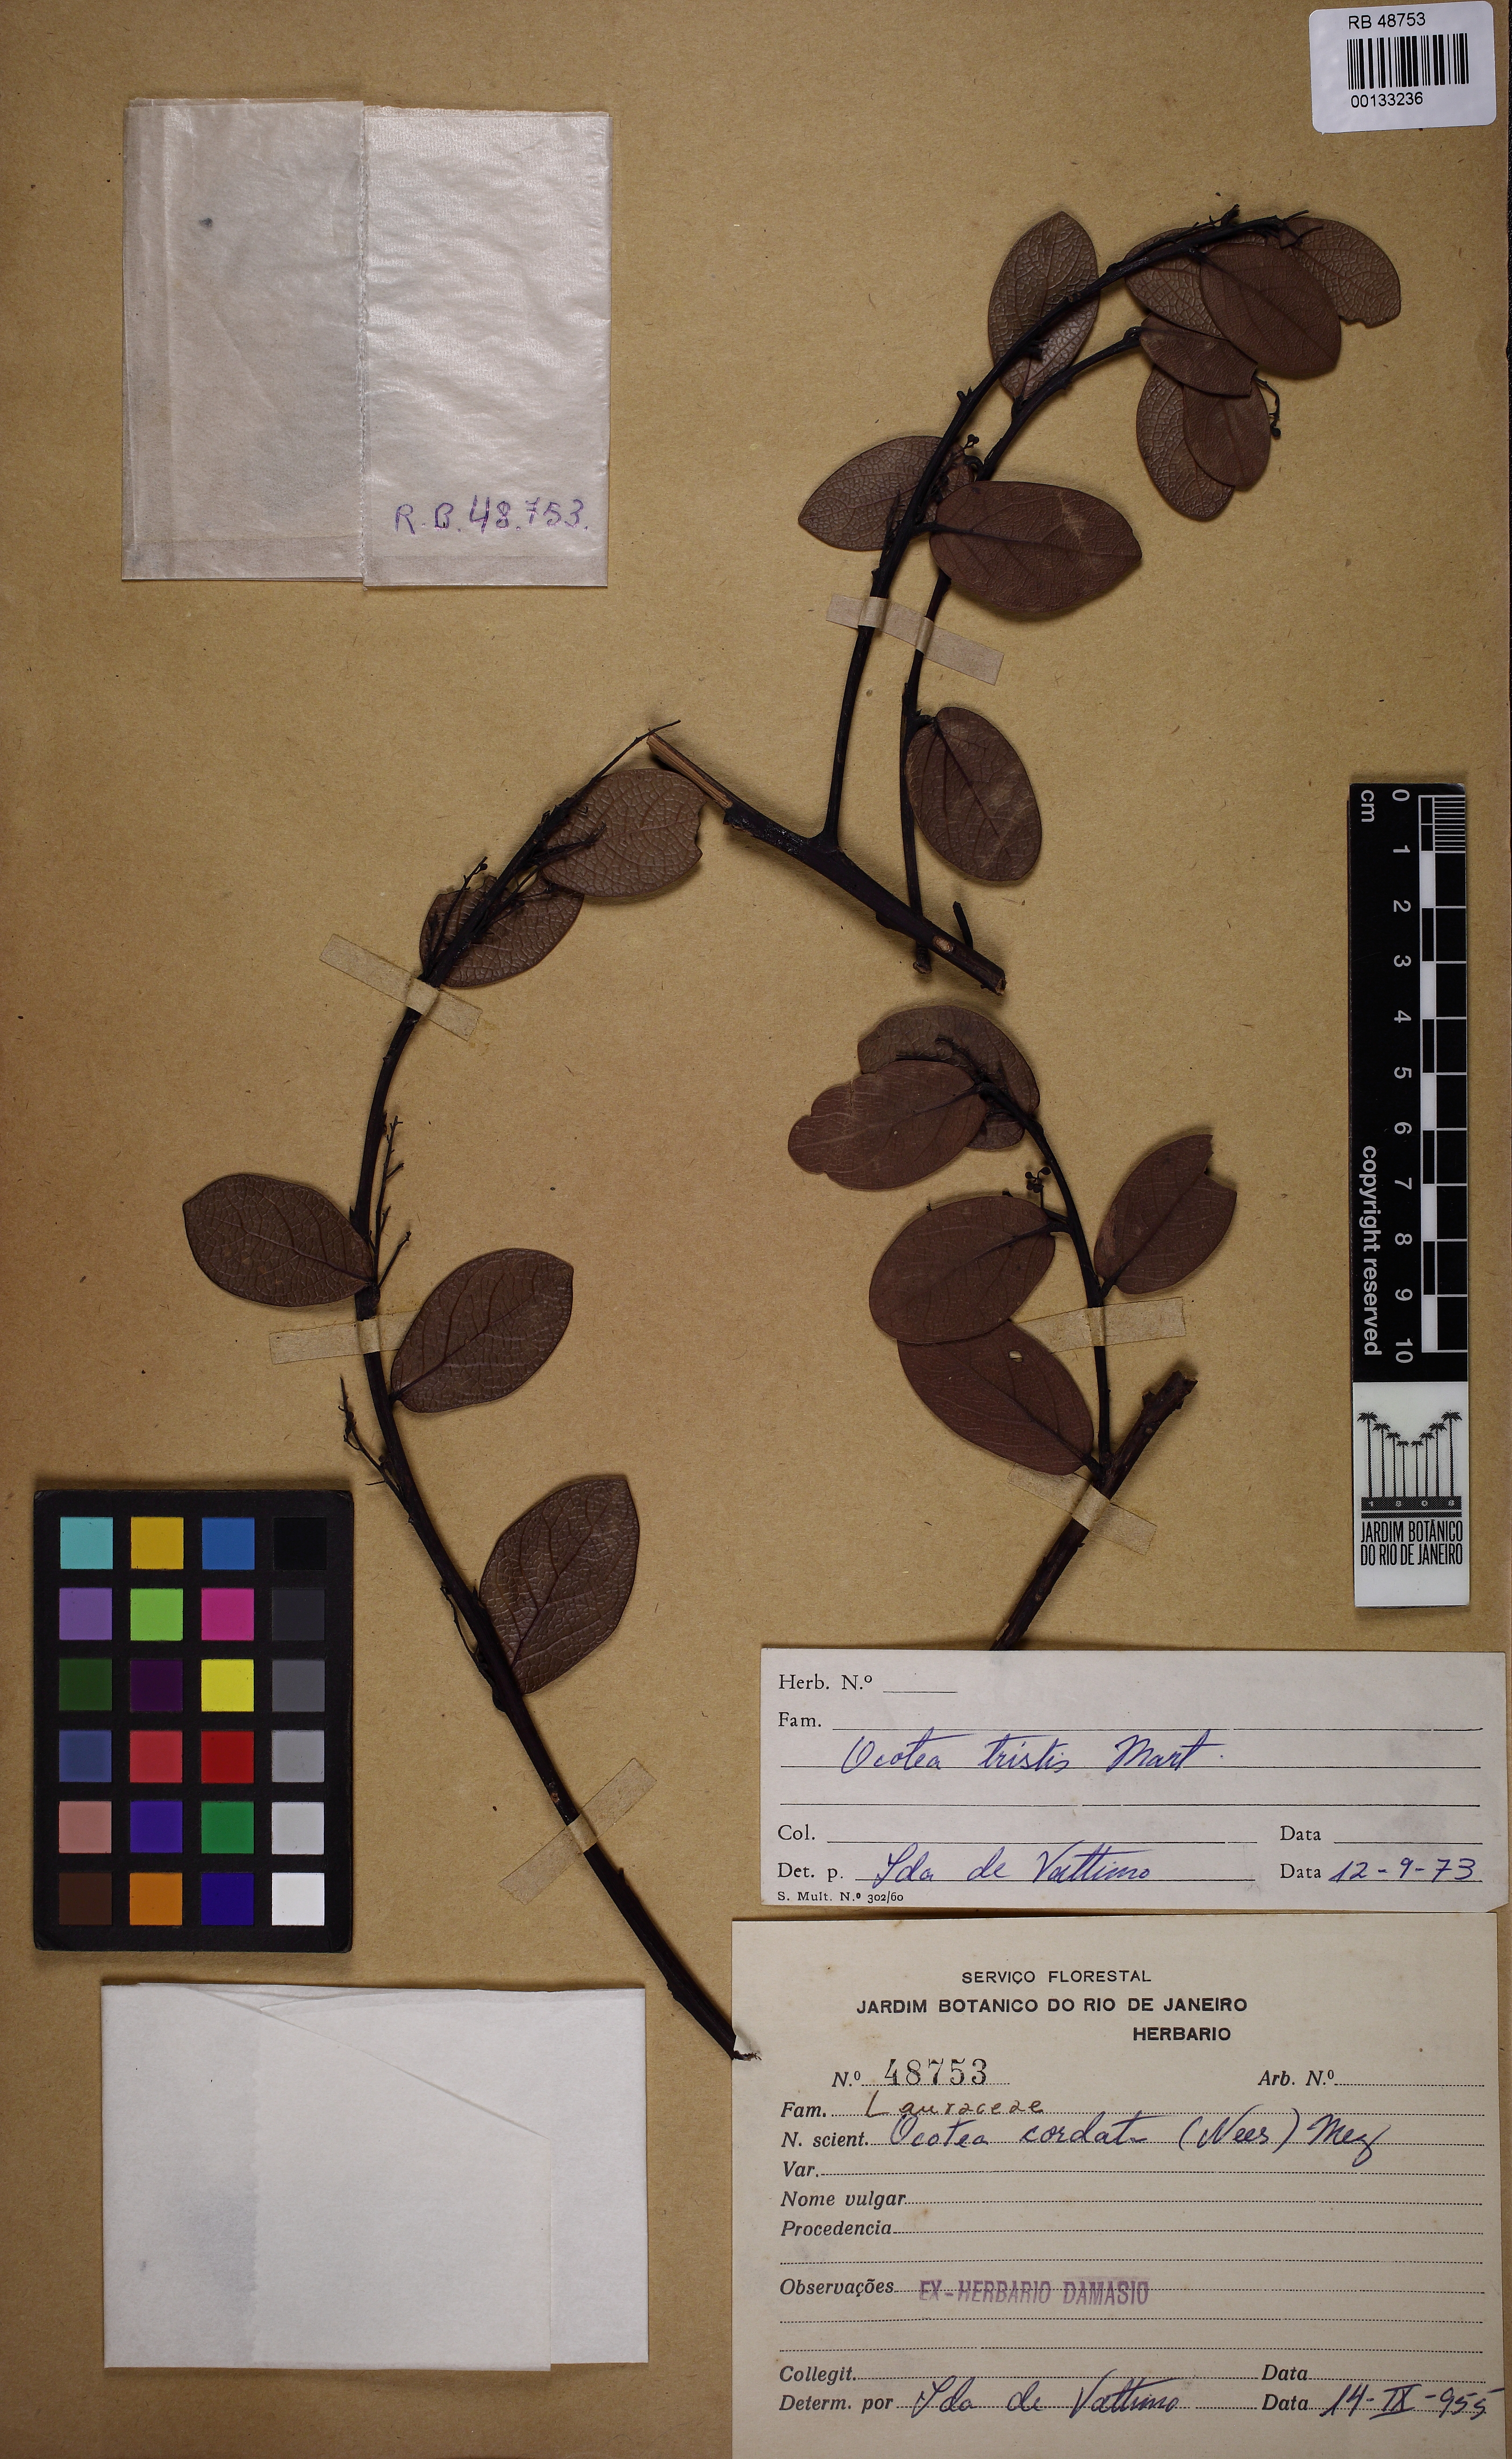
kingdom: Plantae
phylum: Tracheophyta
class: Magnoliopsida
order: Laurales
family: Lauraceae
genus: Mespilodaphne
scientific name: Mespilodaphne tristis
